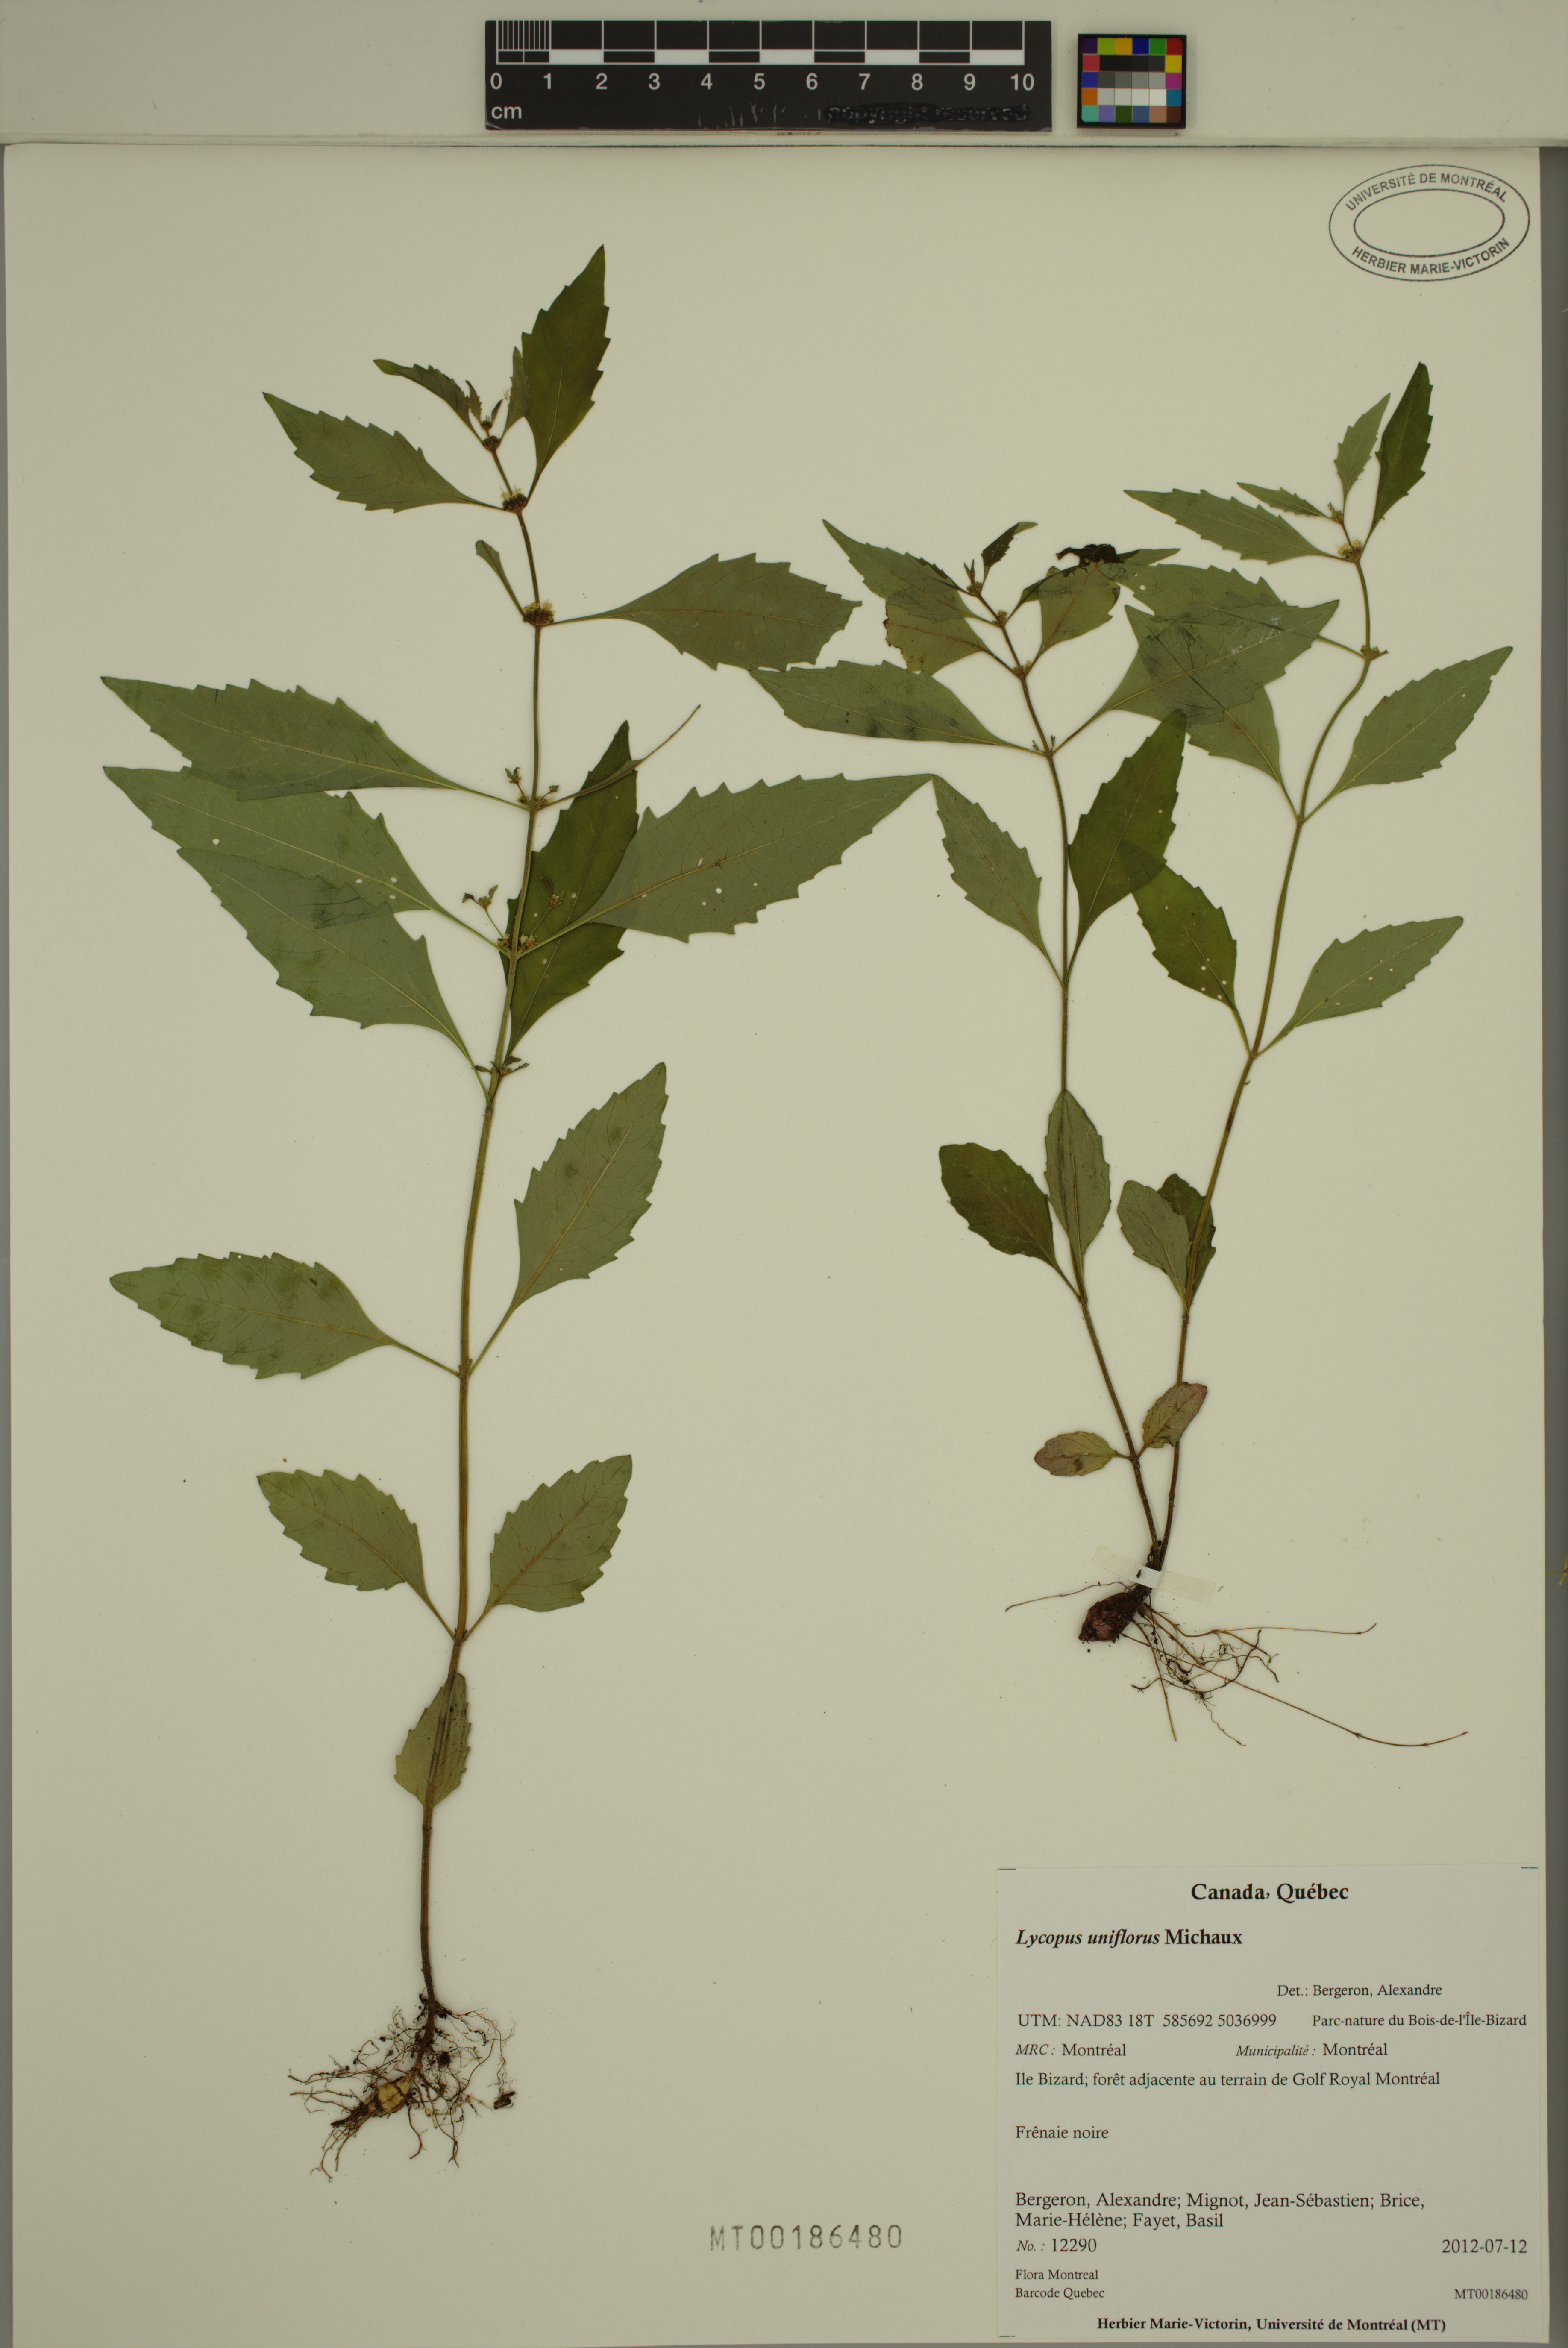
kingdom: Plantae
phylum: Tracheophyta
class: Magnoliopsida
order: Lamiales
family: Lamiaceae
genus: Lycopus
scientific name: Lycopus uniflorus
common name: Northern bugleweed
